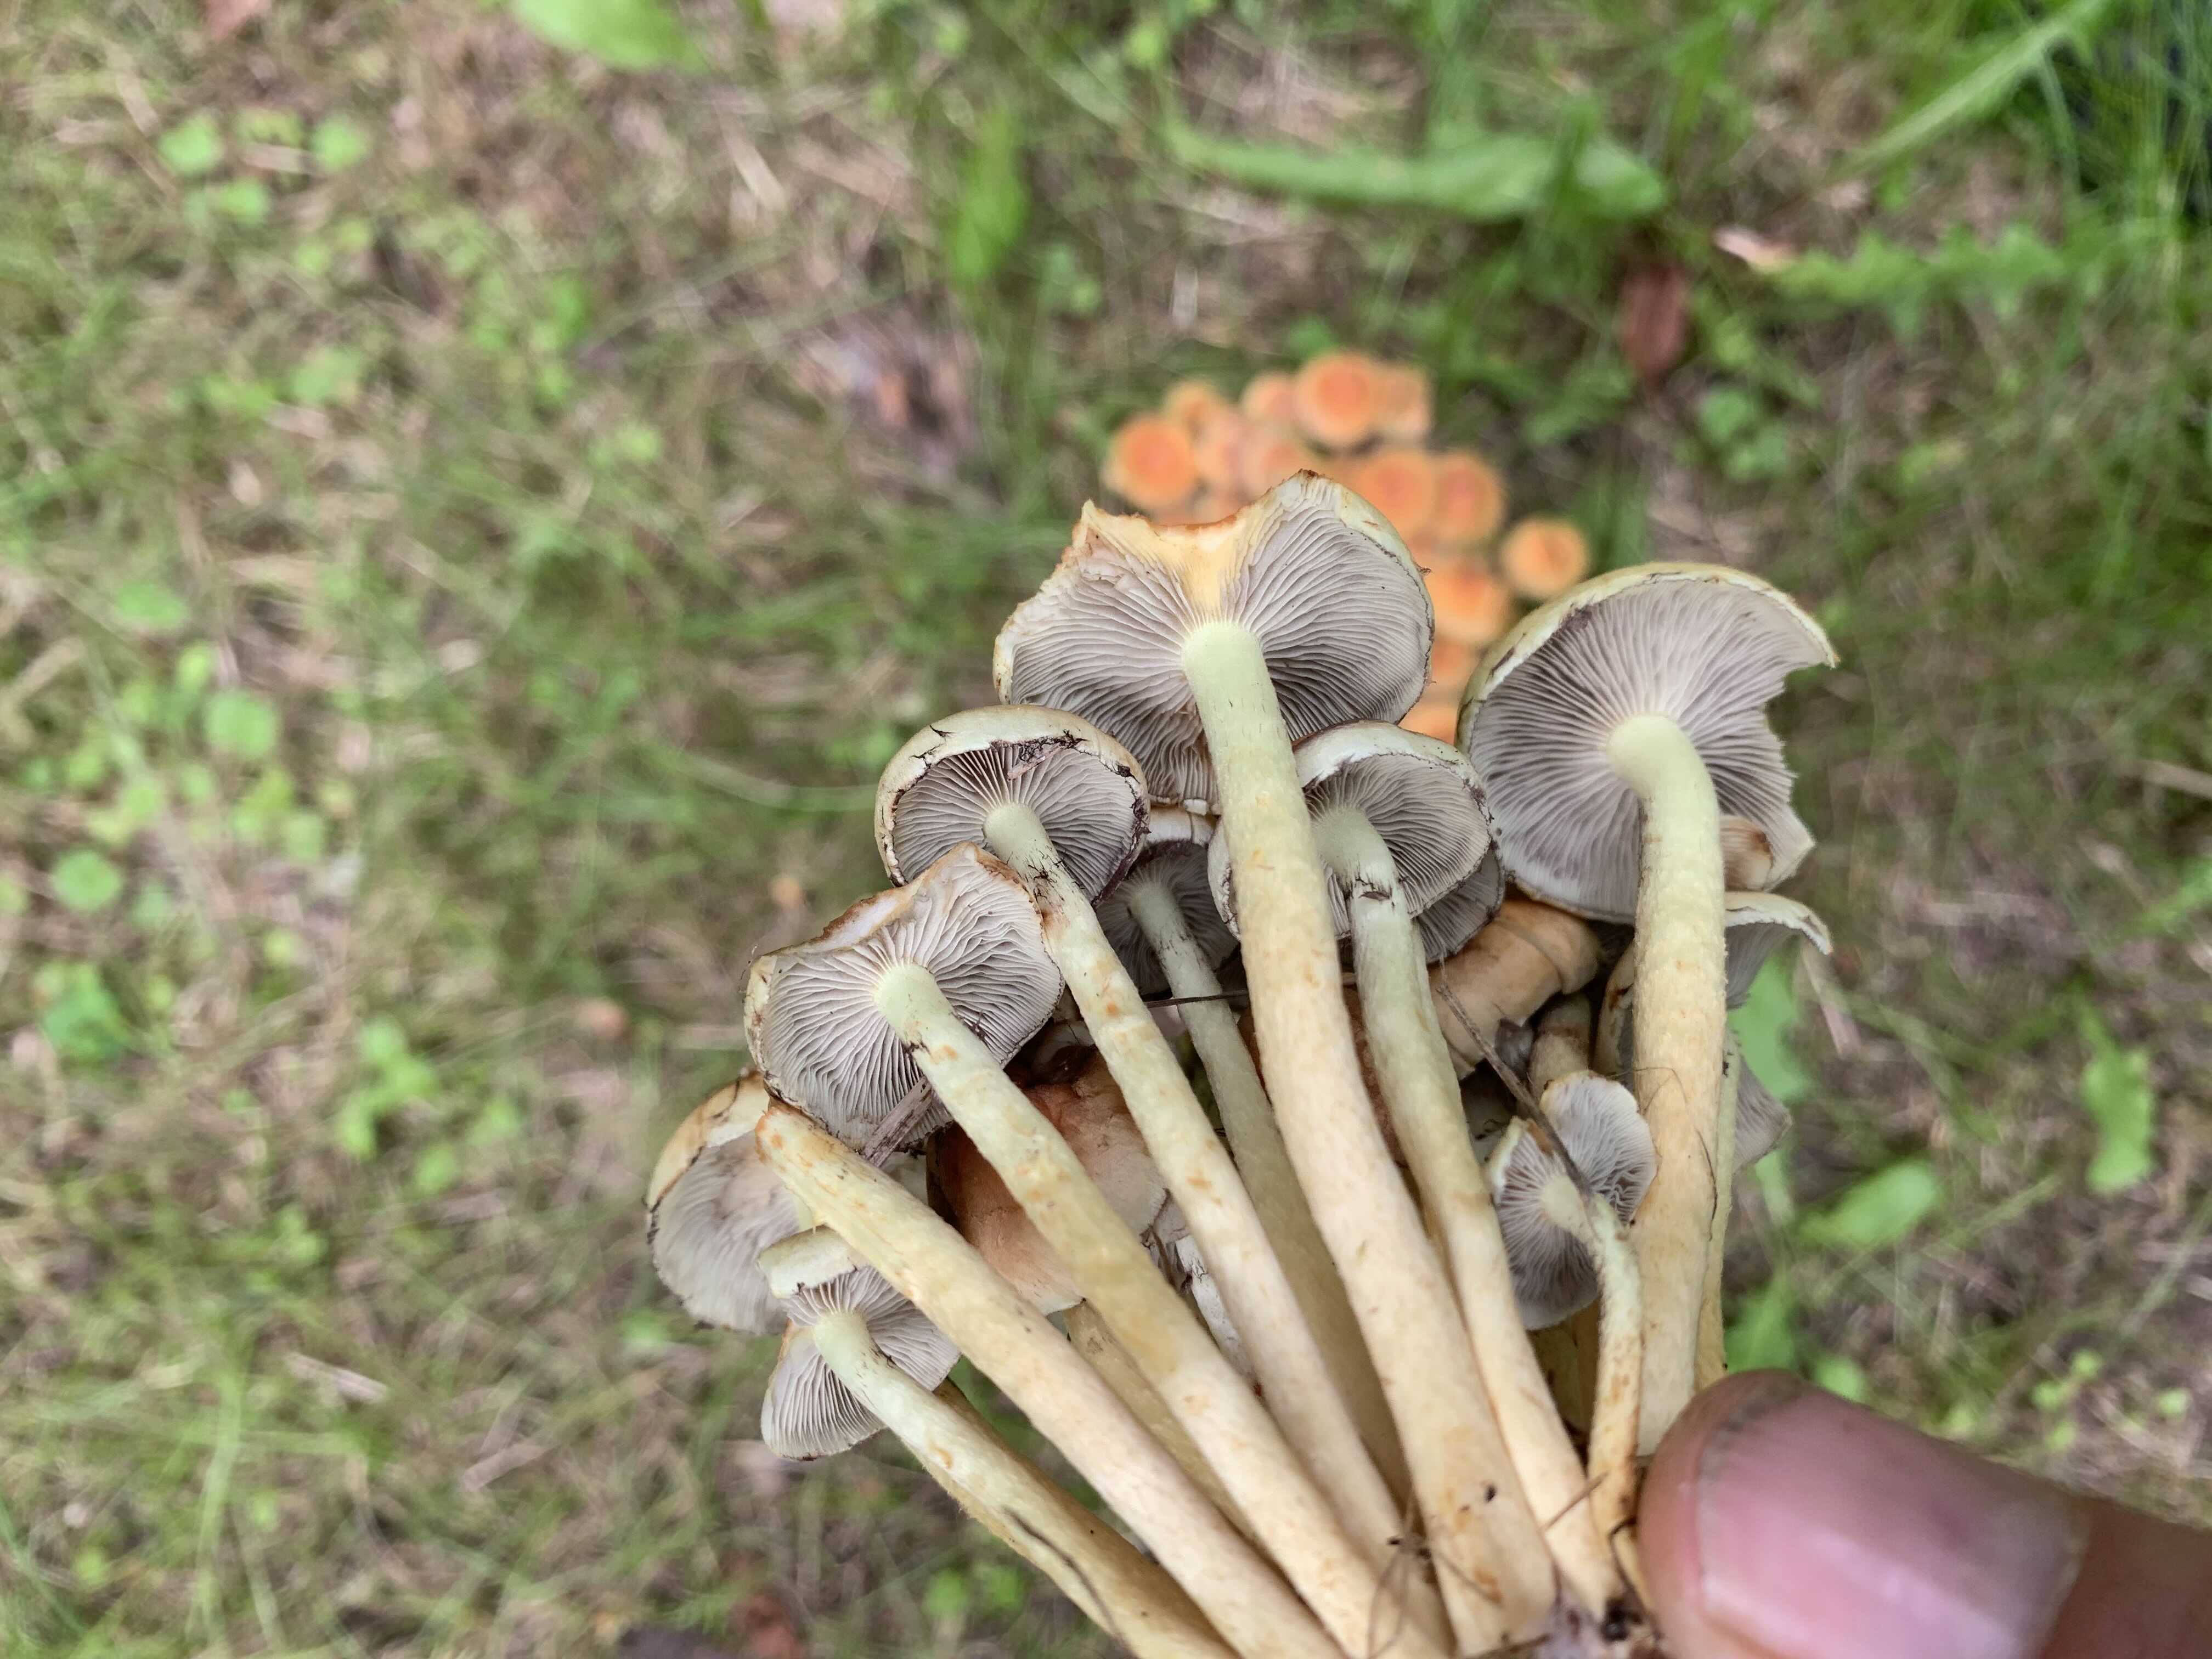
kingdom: Fungi
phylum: Basidiomycota
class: Agaricomycetes
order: Agaricales
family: Strophariaceae
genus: Hypholoma
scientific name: Hypholoma fasciculare
